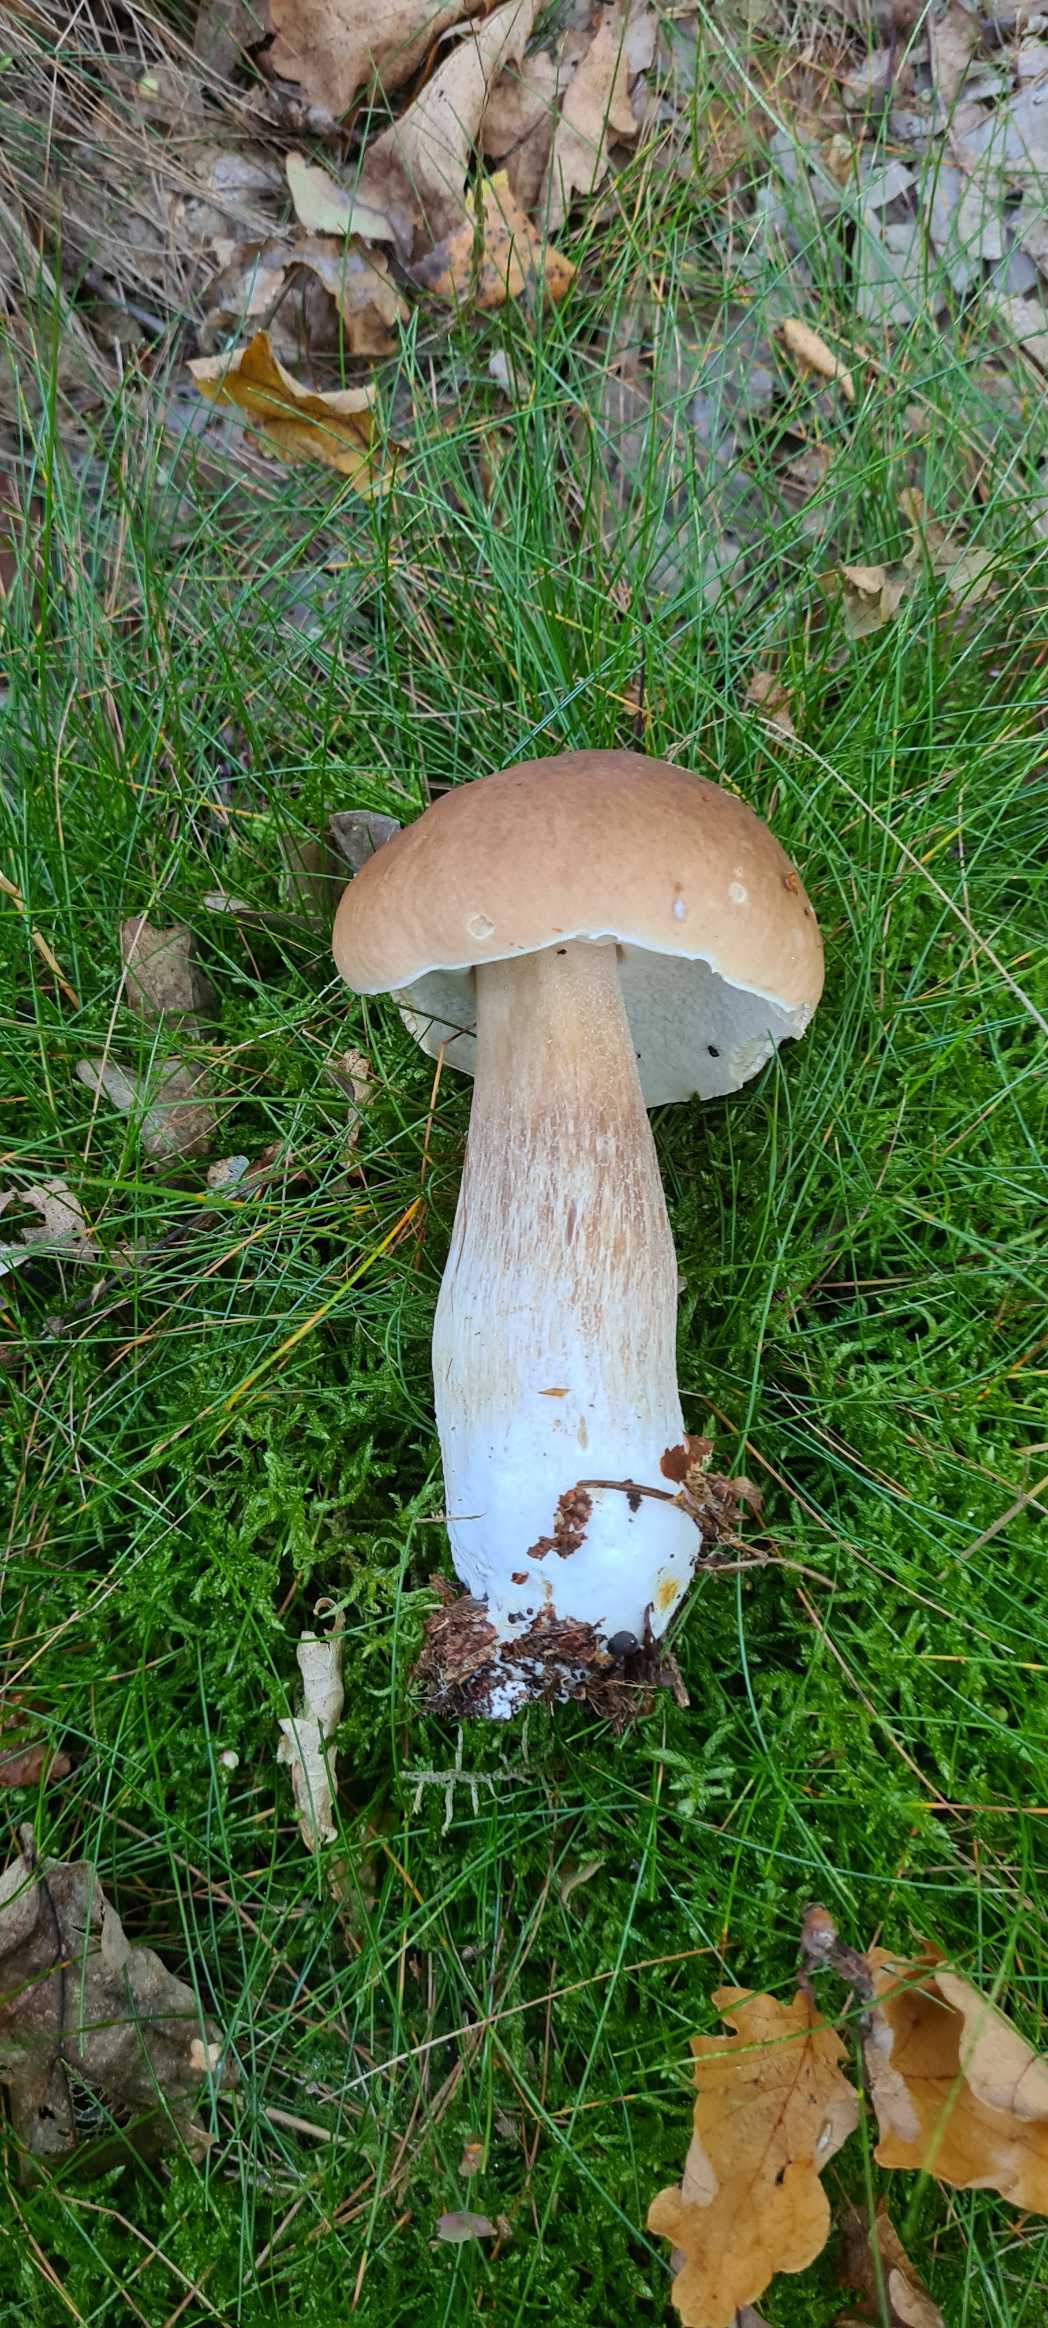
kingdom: Fungi
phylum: Basidiomycota
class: Agaricomycetes
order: Boletales
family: Boletaceae
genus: Boletus
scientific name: Boletus edulis
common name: Spiselig rørhat/karl johan
